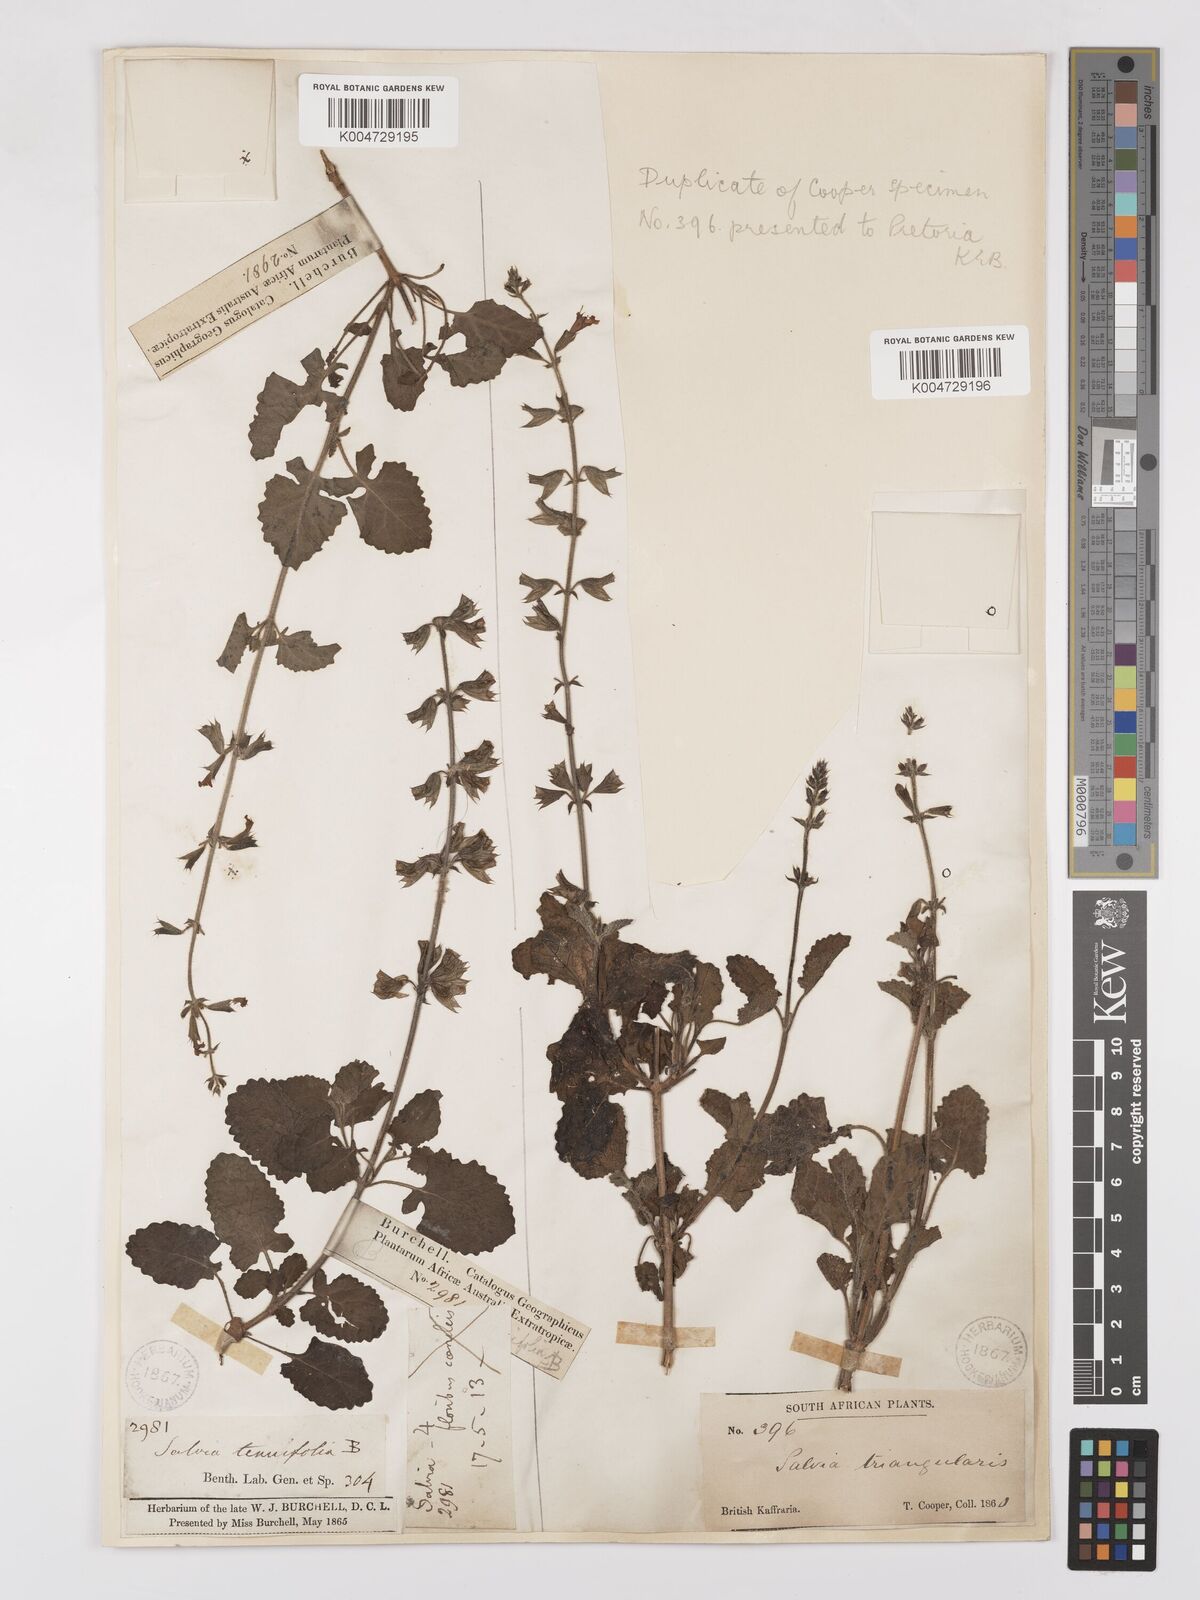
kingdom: Plantae
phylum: Tracheophyta
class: Magnoliopsida
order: Lamiales
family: Lamiaceae
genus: Salvia
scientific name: Salvia triangularis
